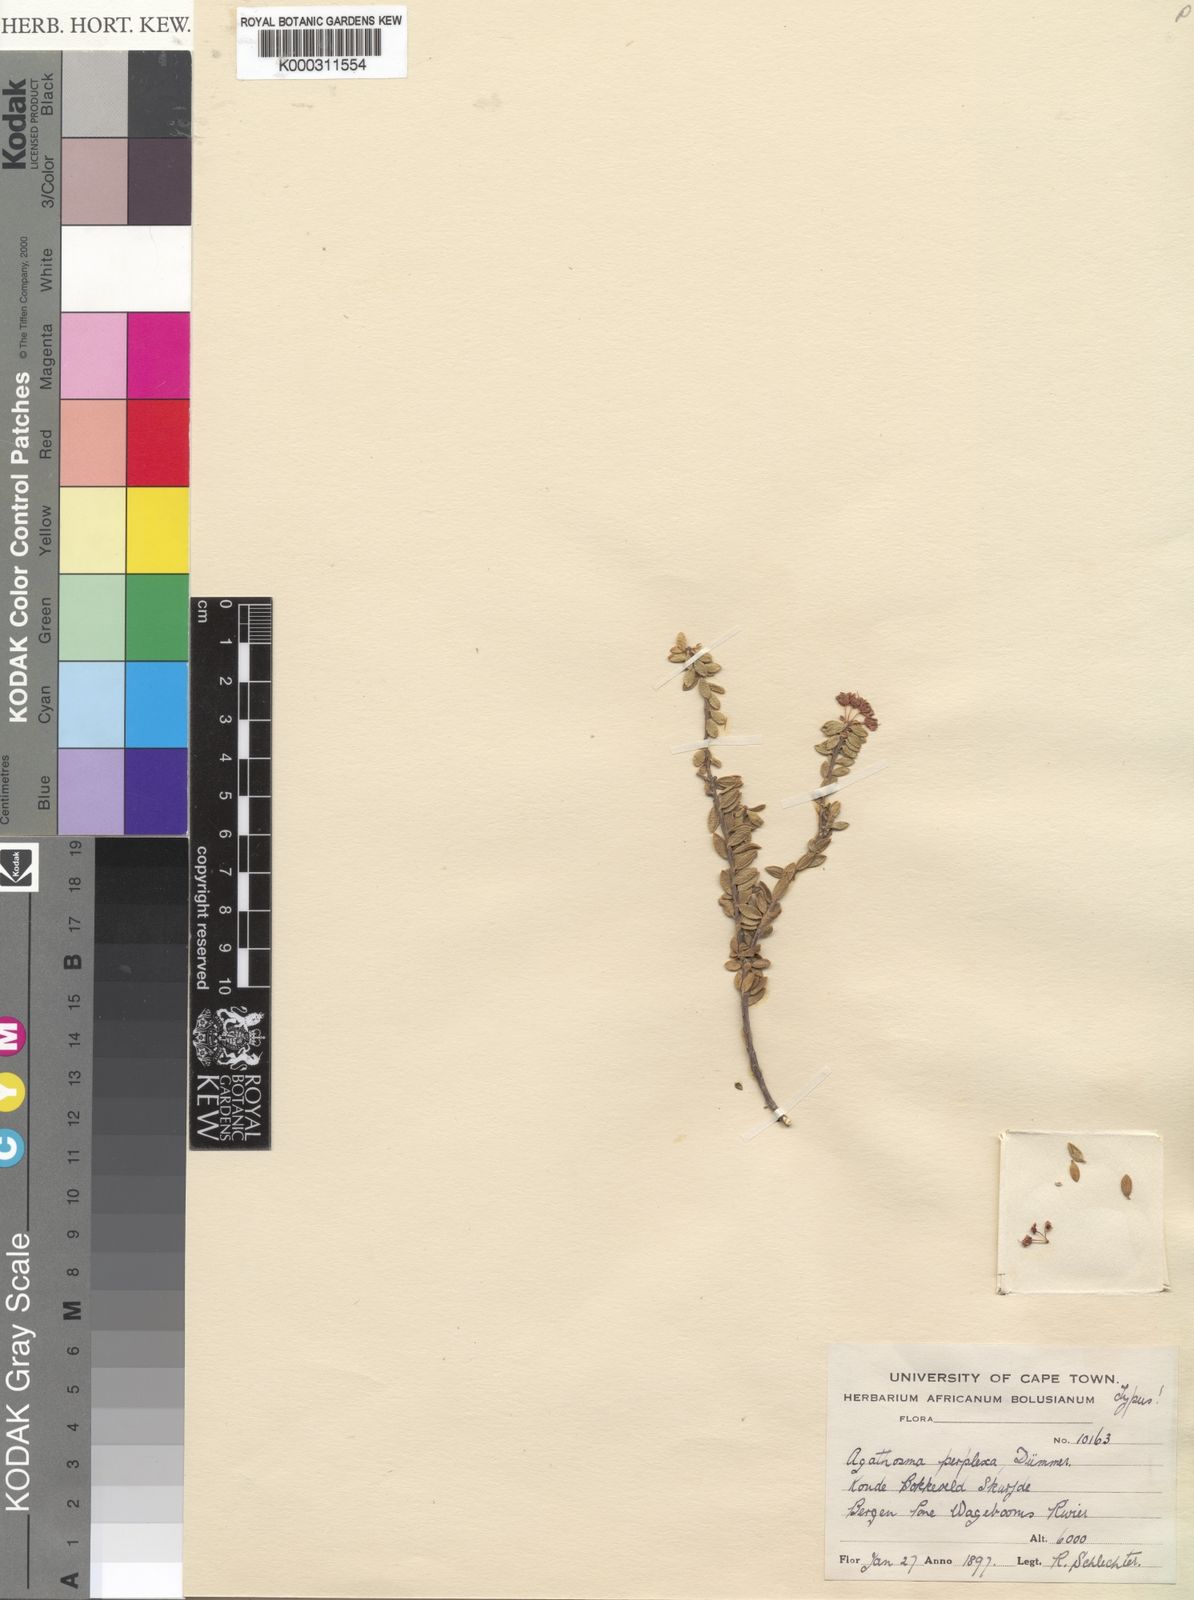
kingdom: Plantae
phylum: Tracheophyta
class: Magnoliopsida
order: Sapindales
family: Rutaceae
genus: Agathosma
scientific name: Agathosma marlothii
